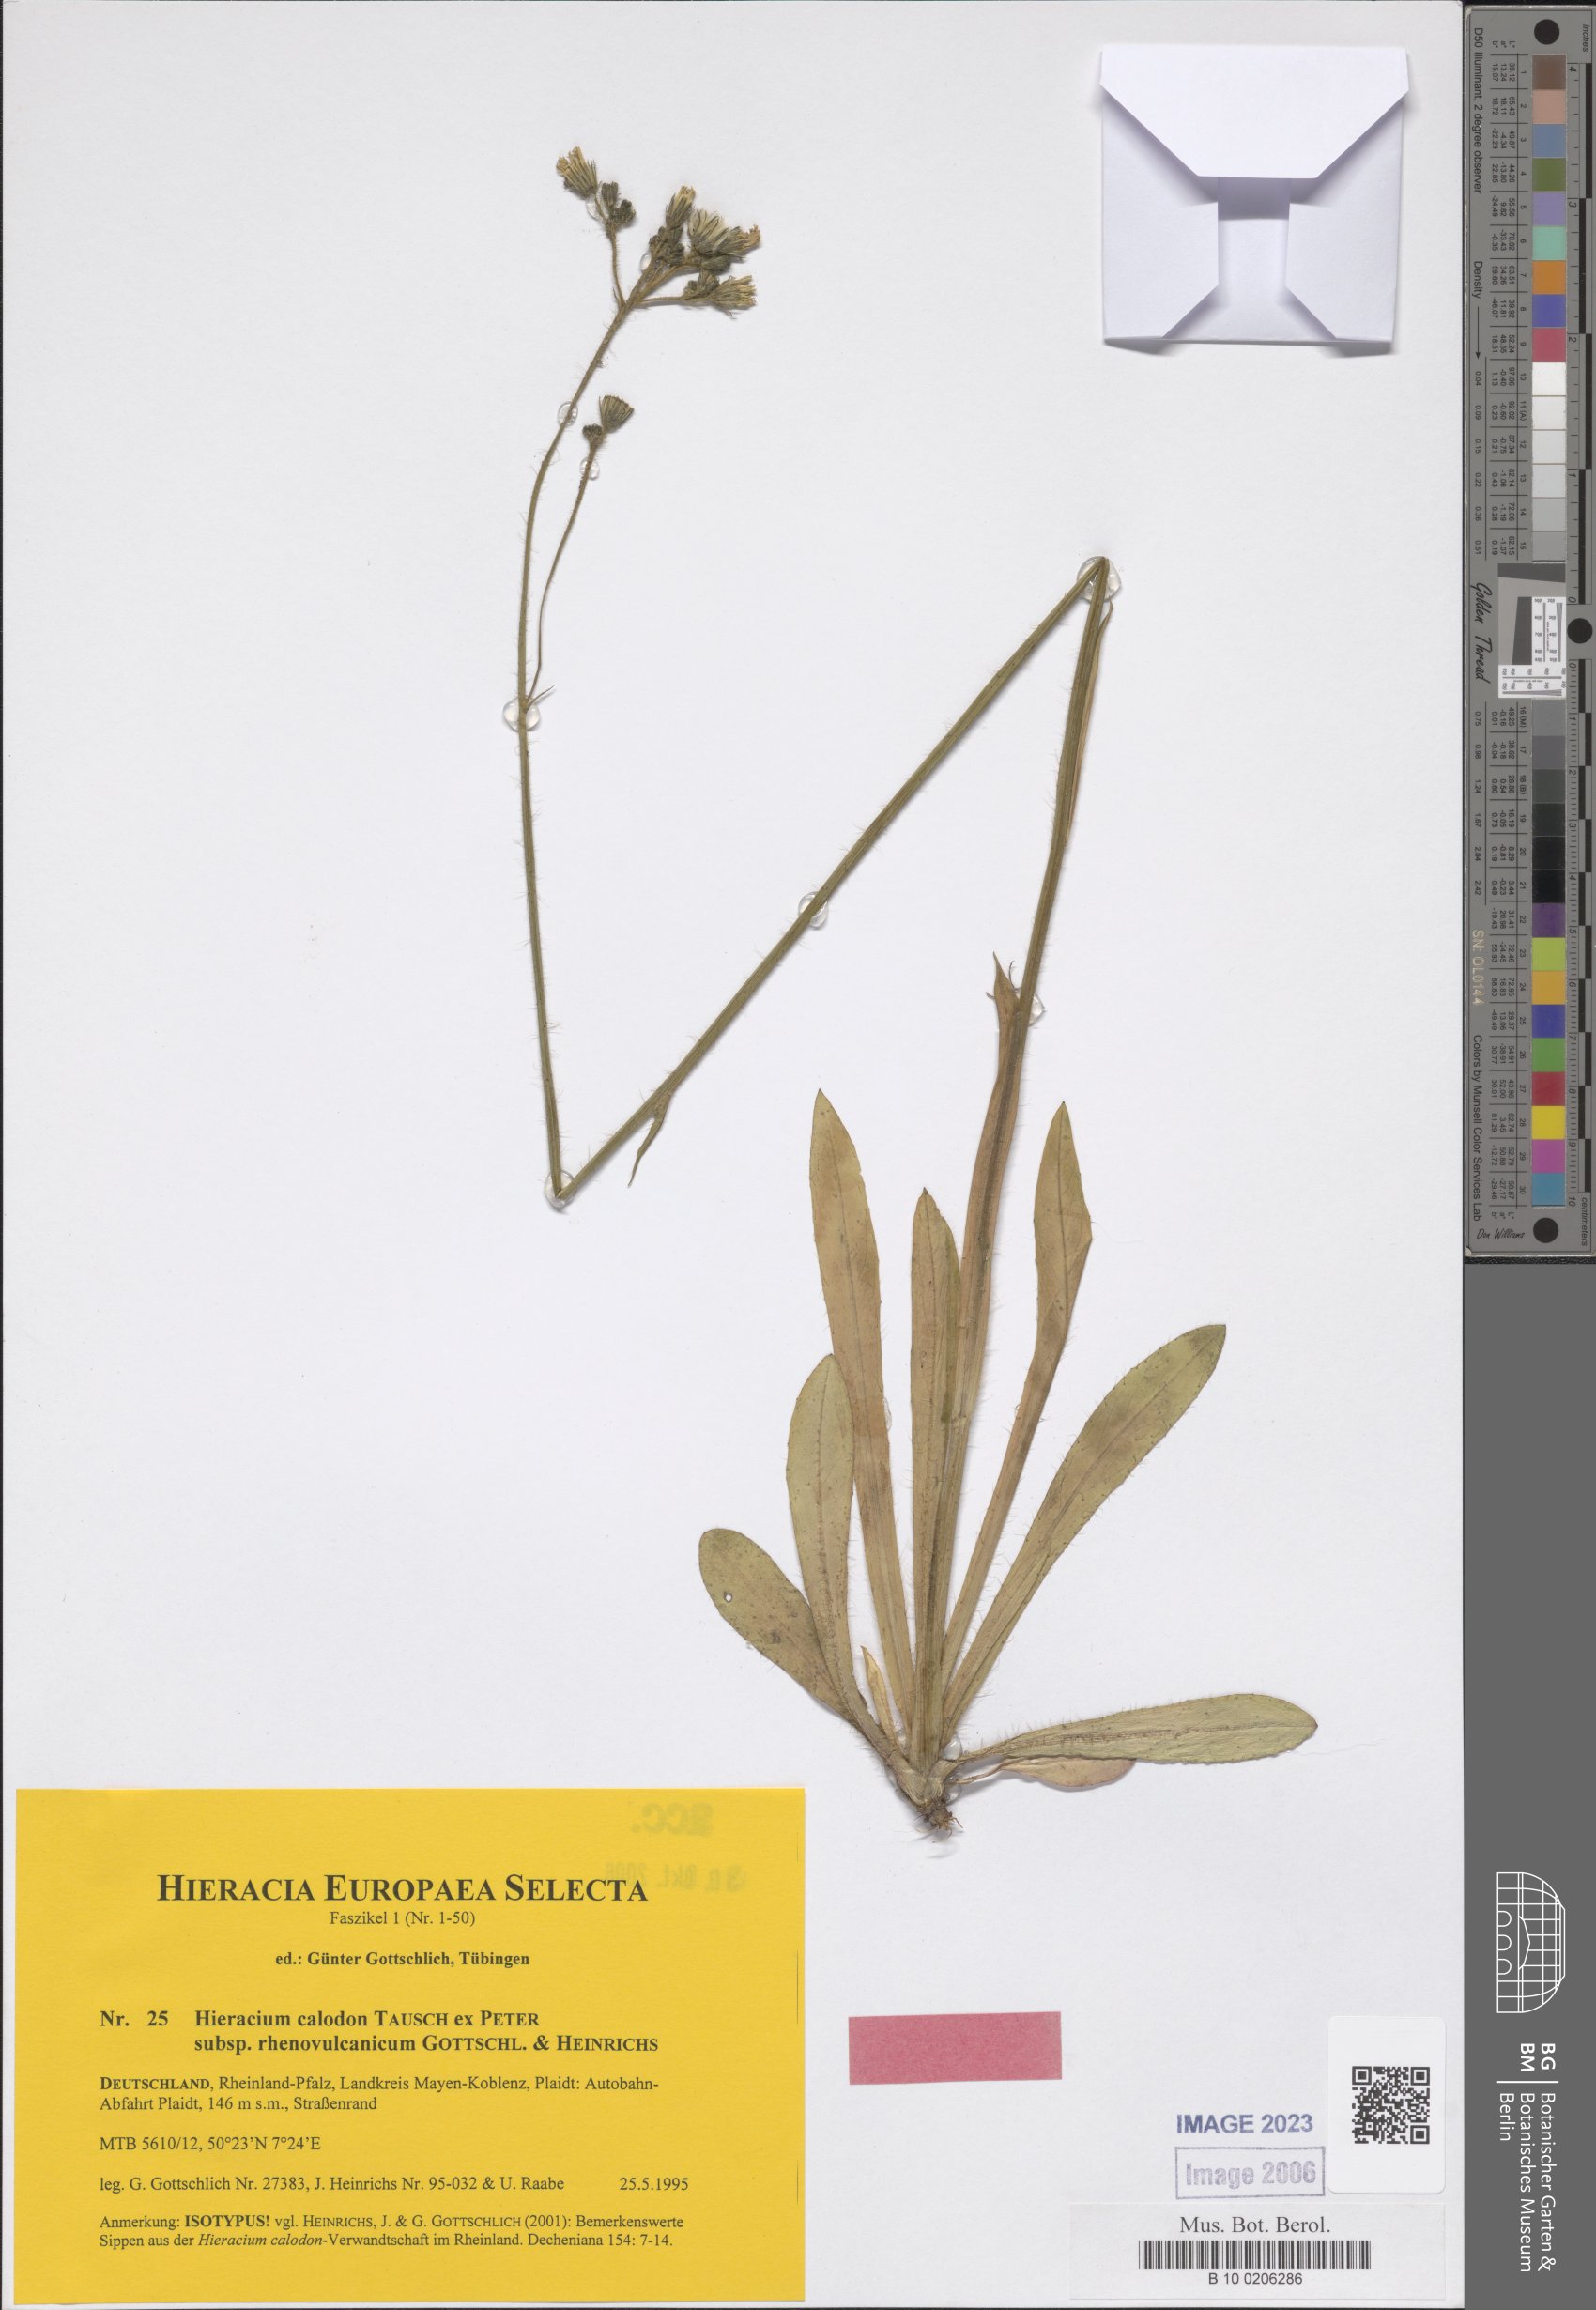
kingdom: Plantae
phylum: Tracheophyta
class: Magnoliopsida
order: Asterales
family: Asteraceae
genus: Pilosella
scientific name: Pilosella calodon
